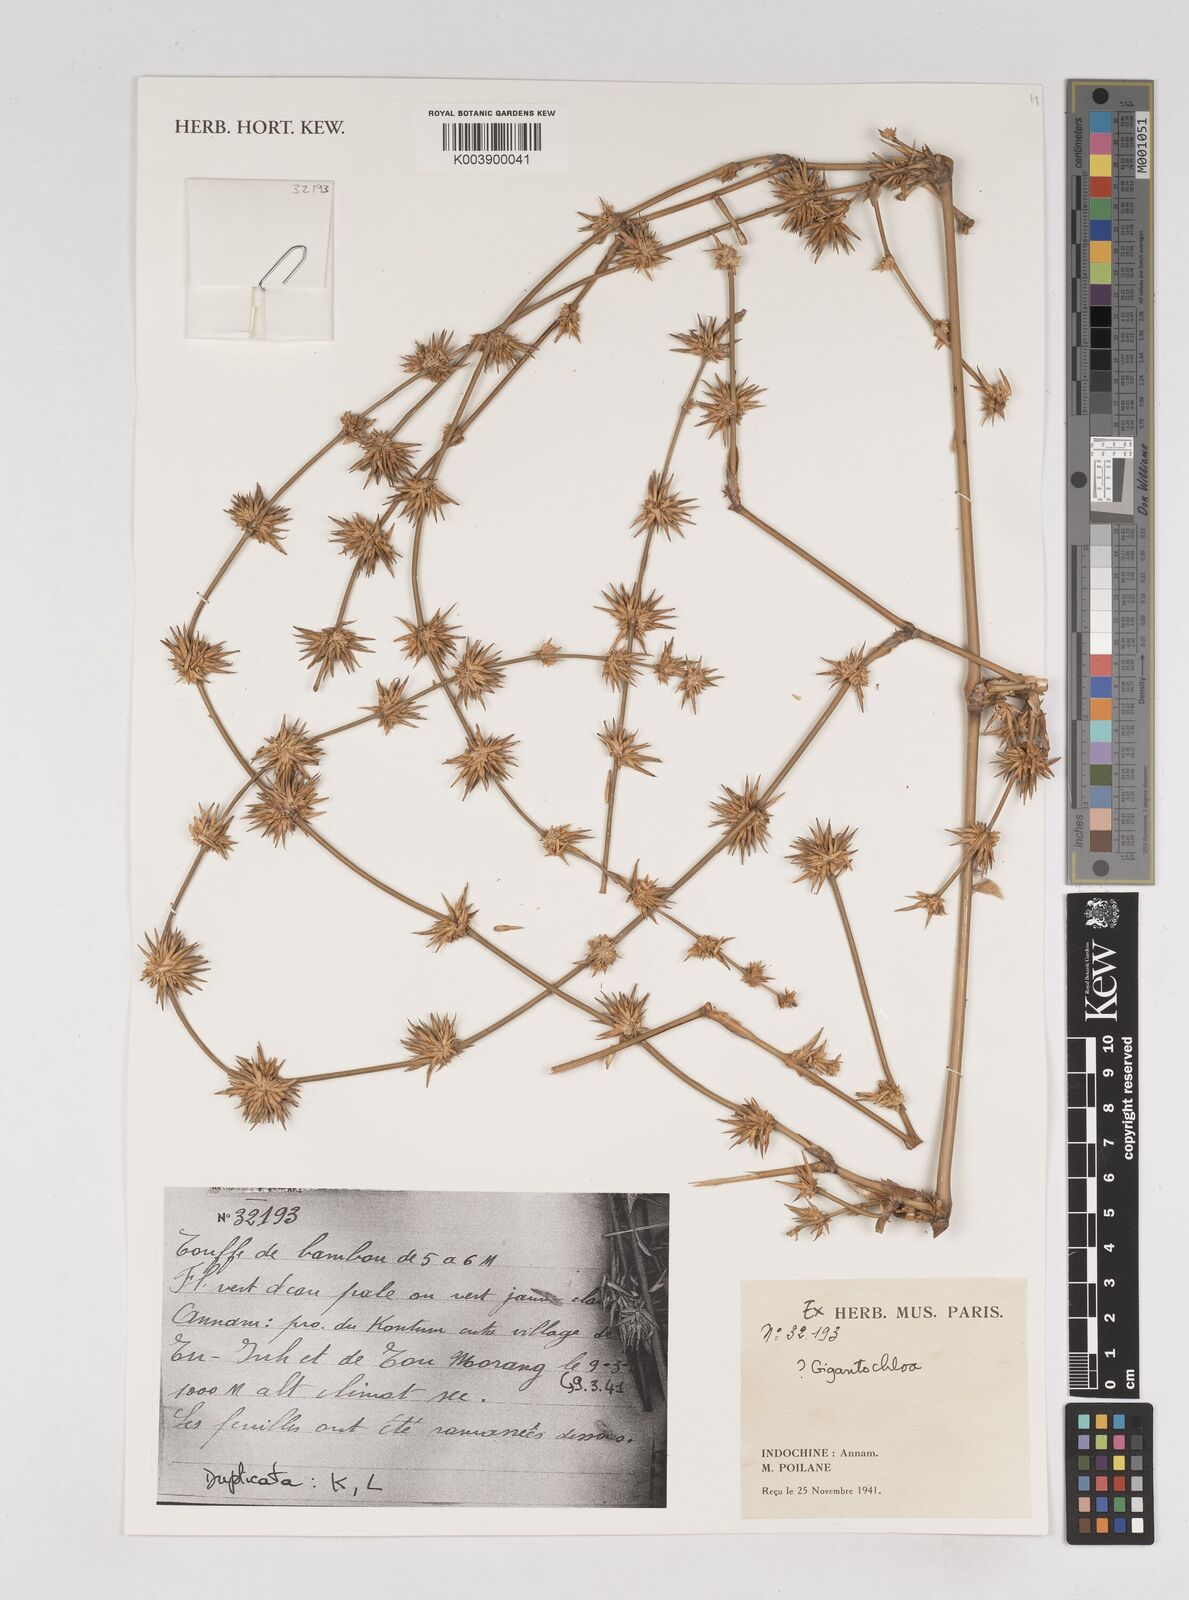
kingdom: Plantae
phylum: Tracheophyta
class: Liliopsida
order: Poales
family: Poaceae
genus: Gigantochloa
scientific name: Gigantochloa
